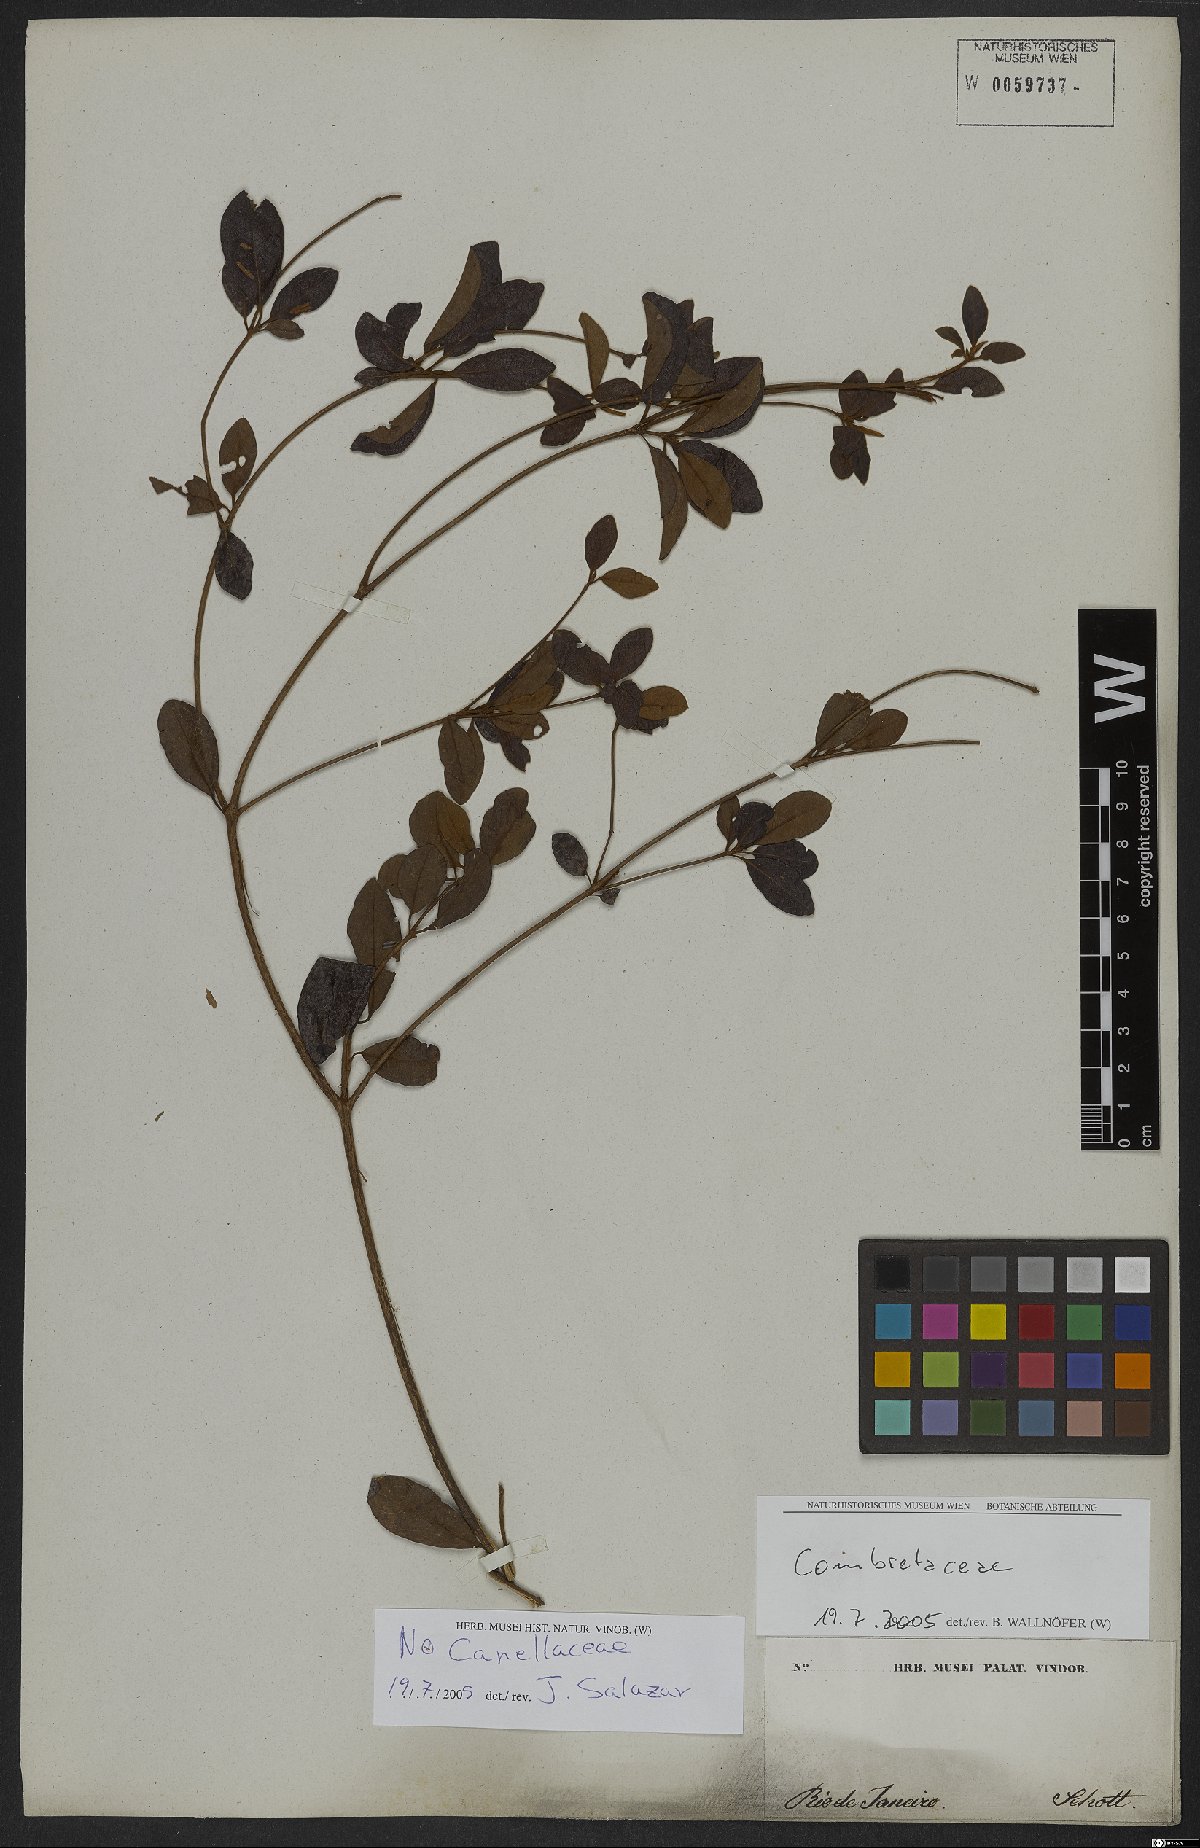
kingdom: Plantae
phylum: Tracheophyta
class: Magnoliopsida
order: Myrtales
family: Combretaceae
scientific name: Combretaceae
